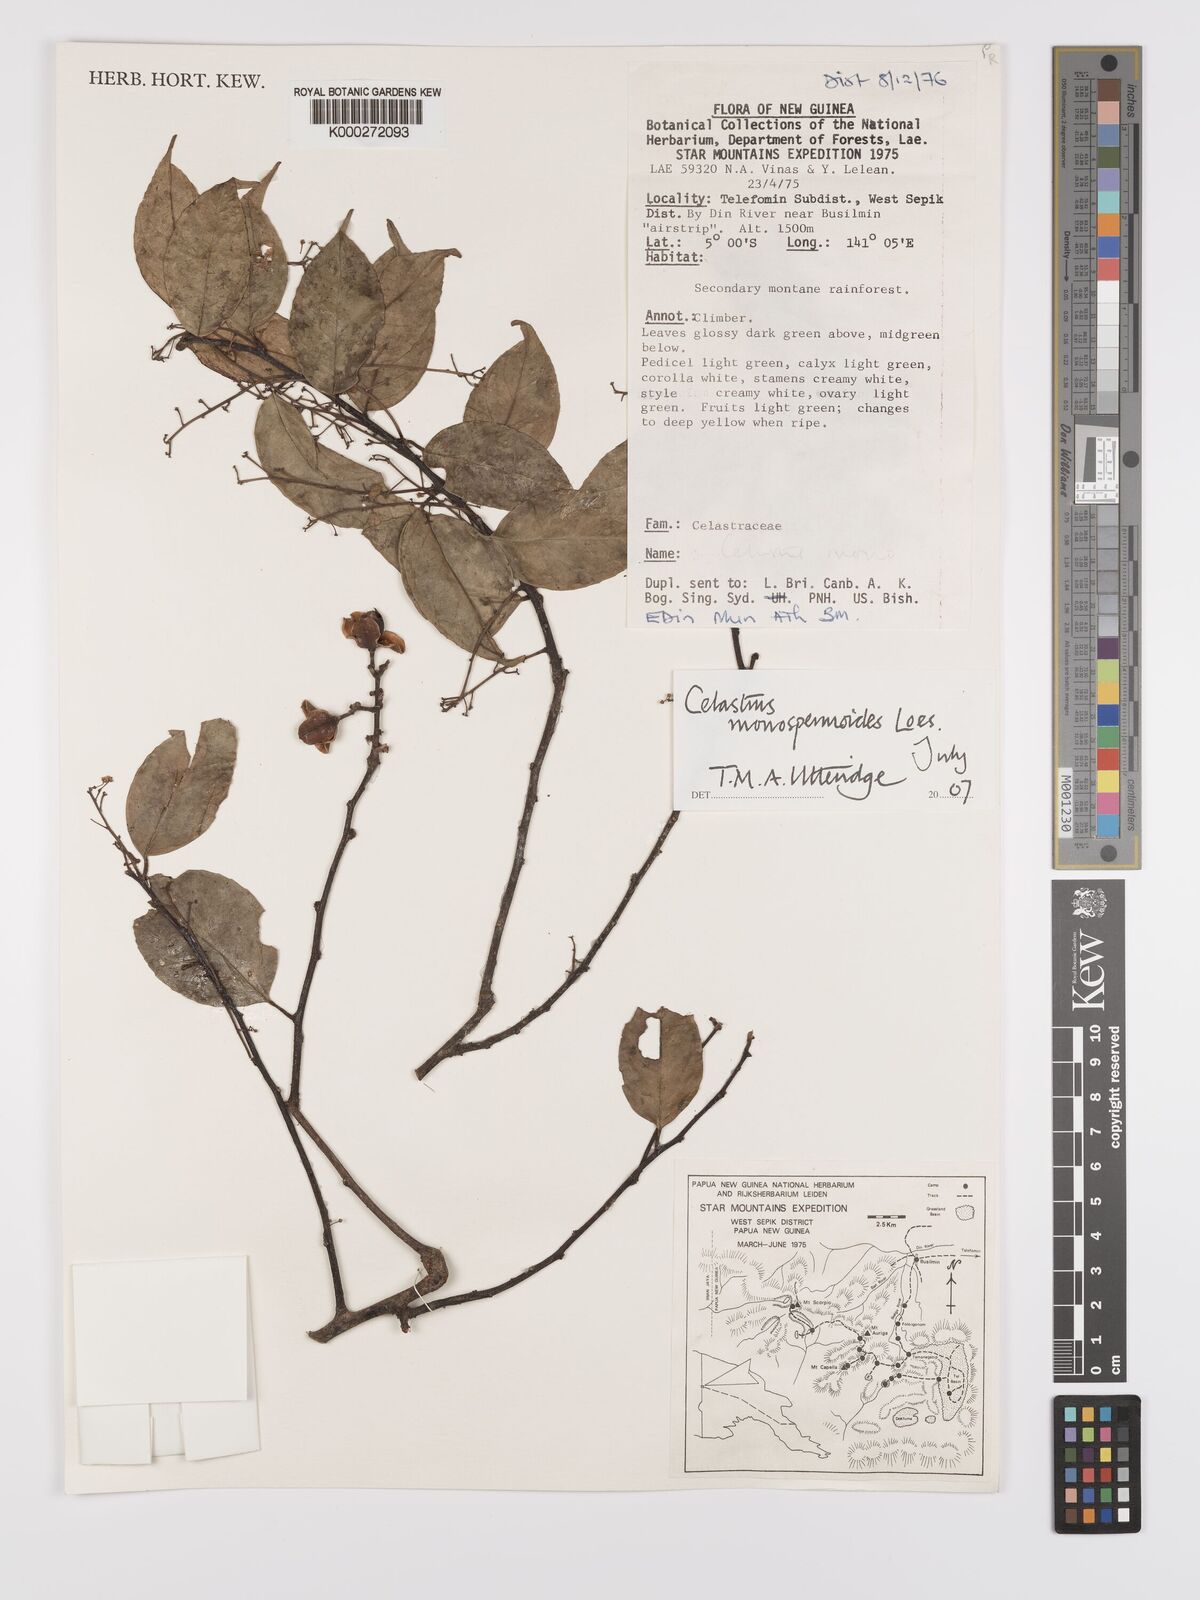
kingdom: Plantae
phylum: Tracheophyta
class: Magnoliopsida
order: Celastrales
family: Celastraceae
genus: Celastrus
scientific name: Celastrus monospermoides
